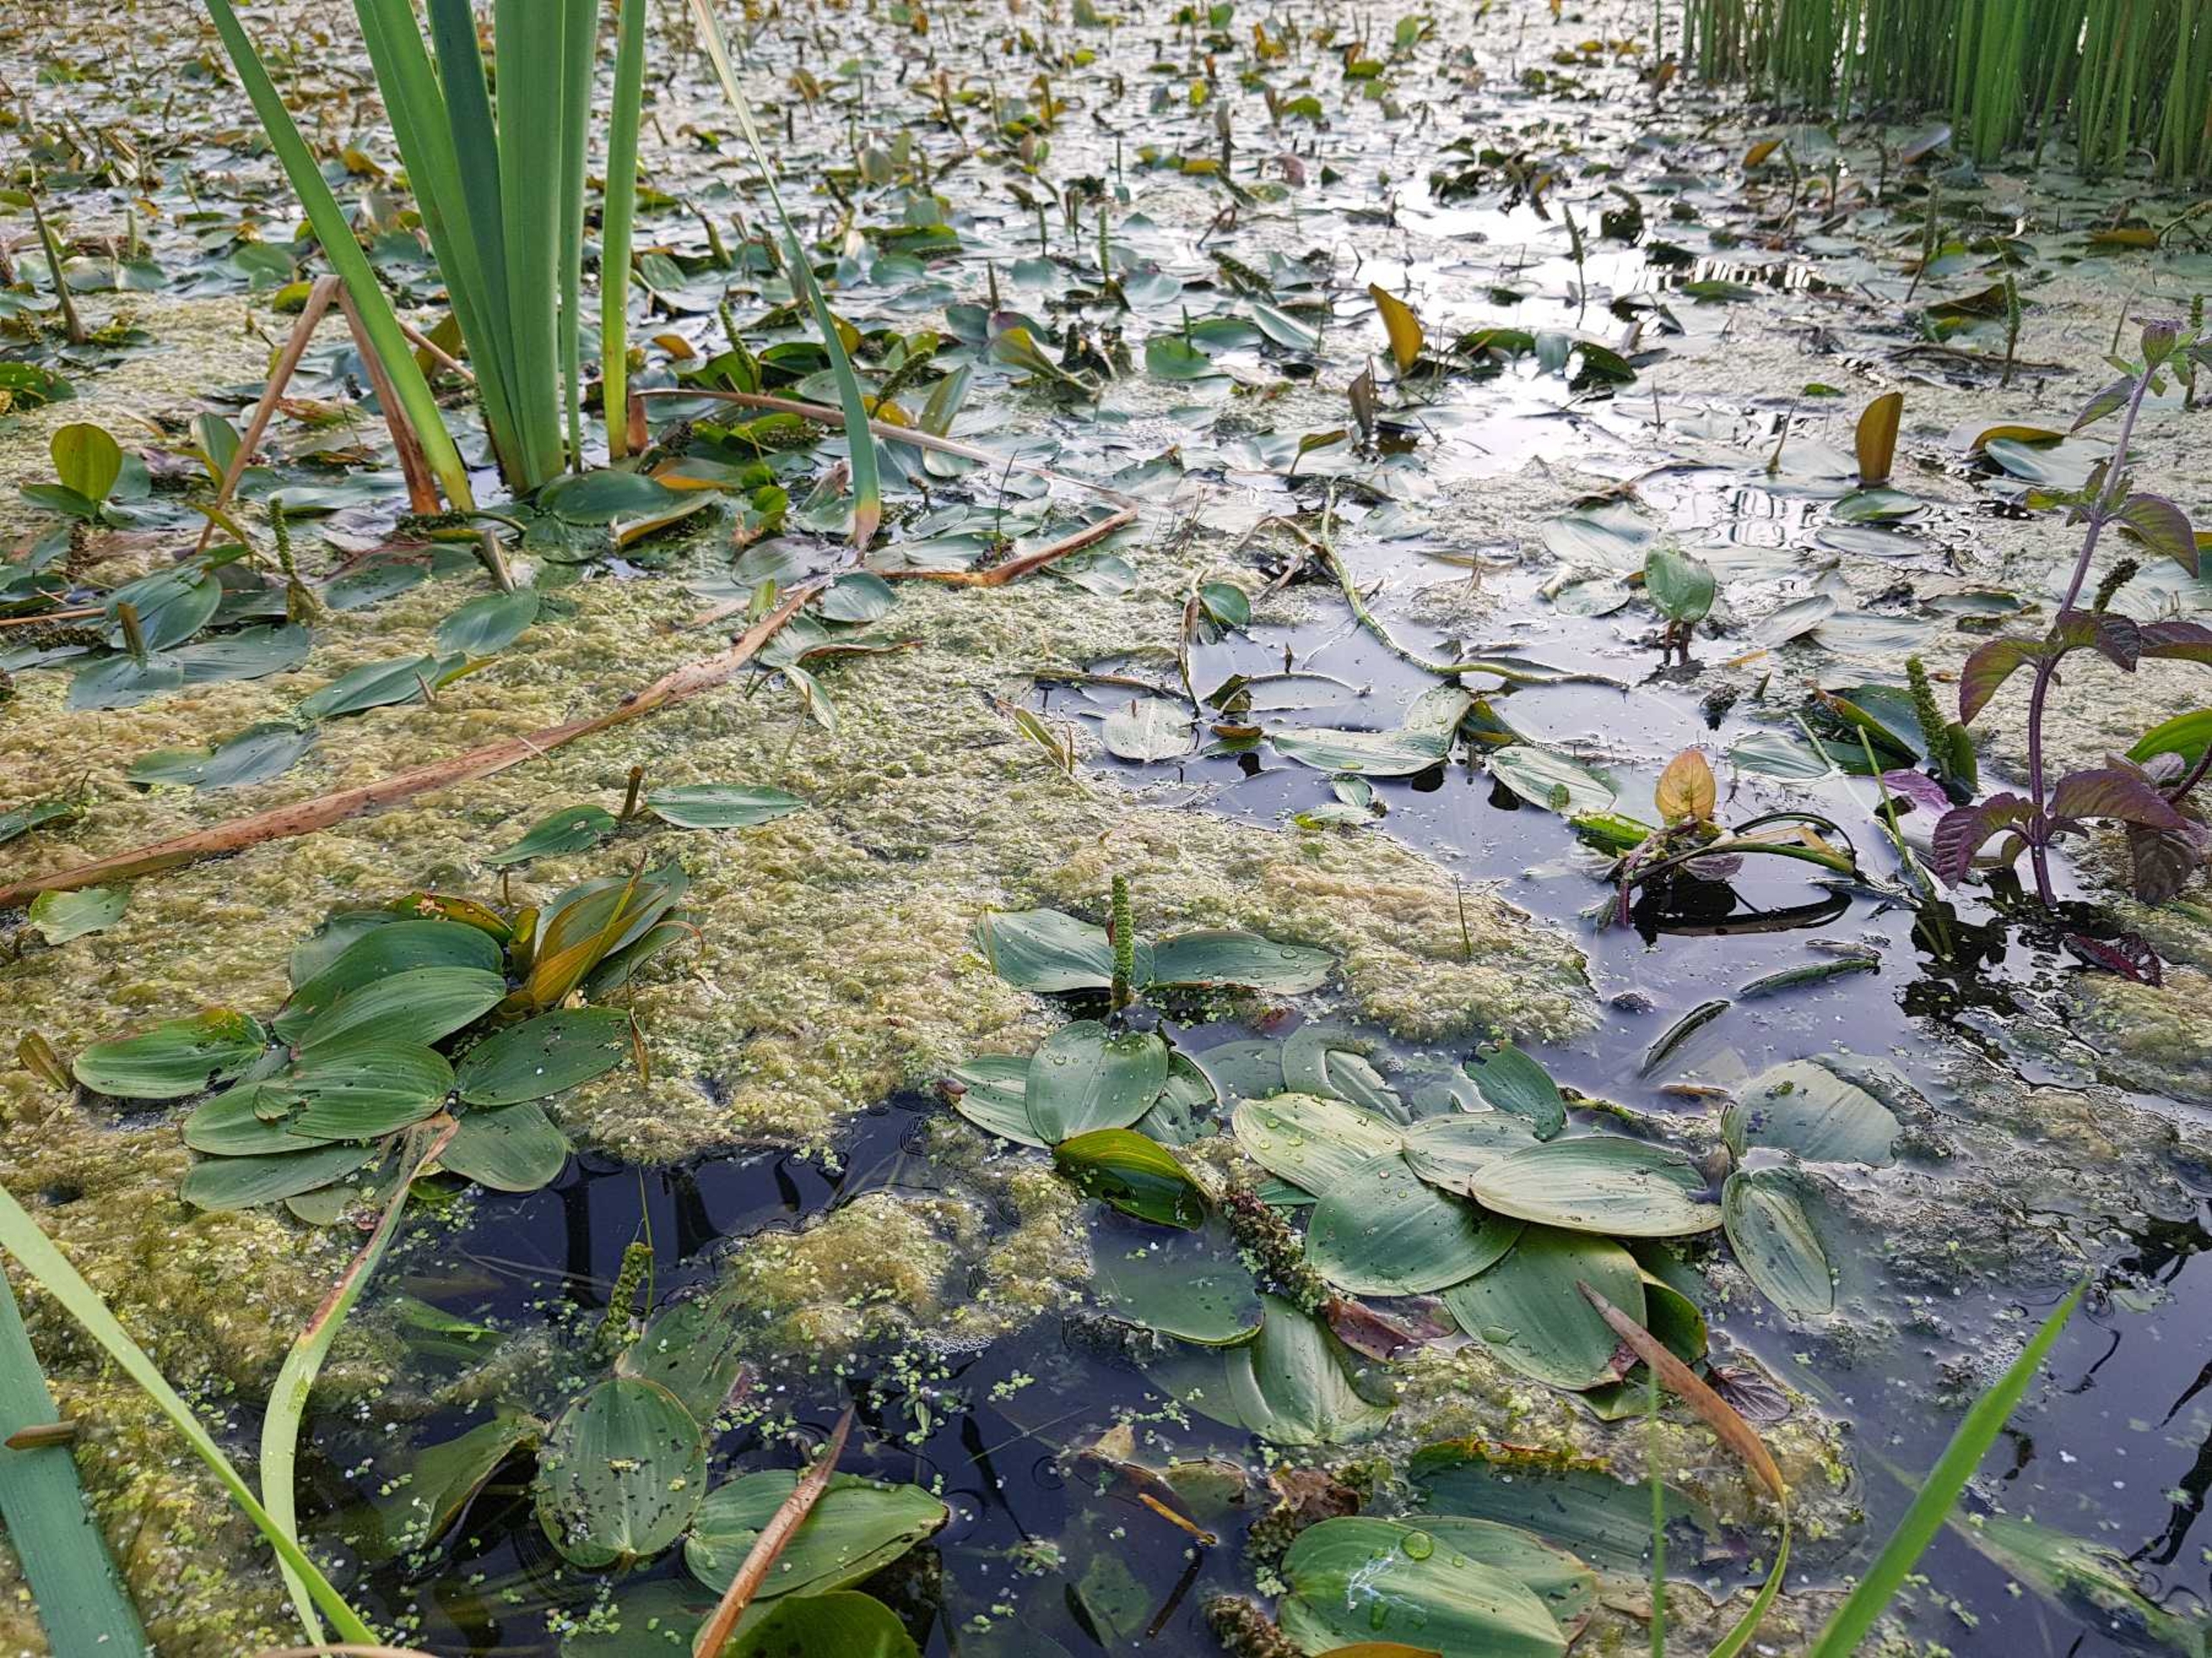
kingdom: Plantae
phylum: Tracheophyta
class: Liliopsida
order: Alismatales
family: Potamogetonaceae
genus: Potamogeton
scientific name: Potamogeton natans
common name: Svømmende vandaks
